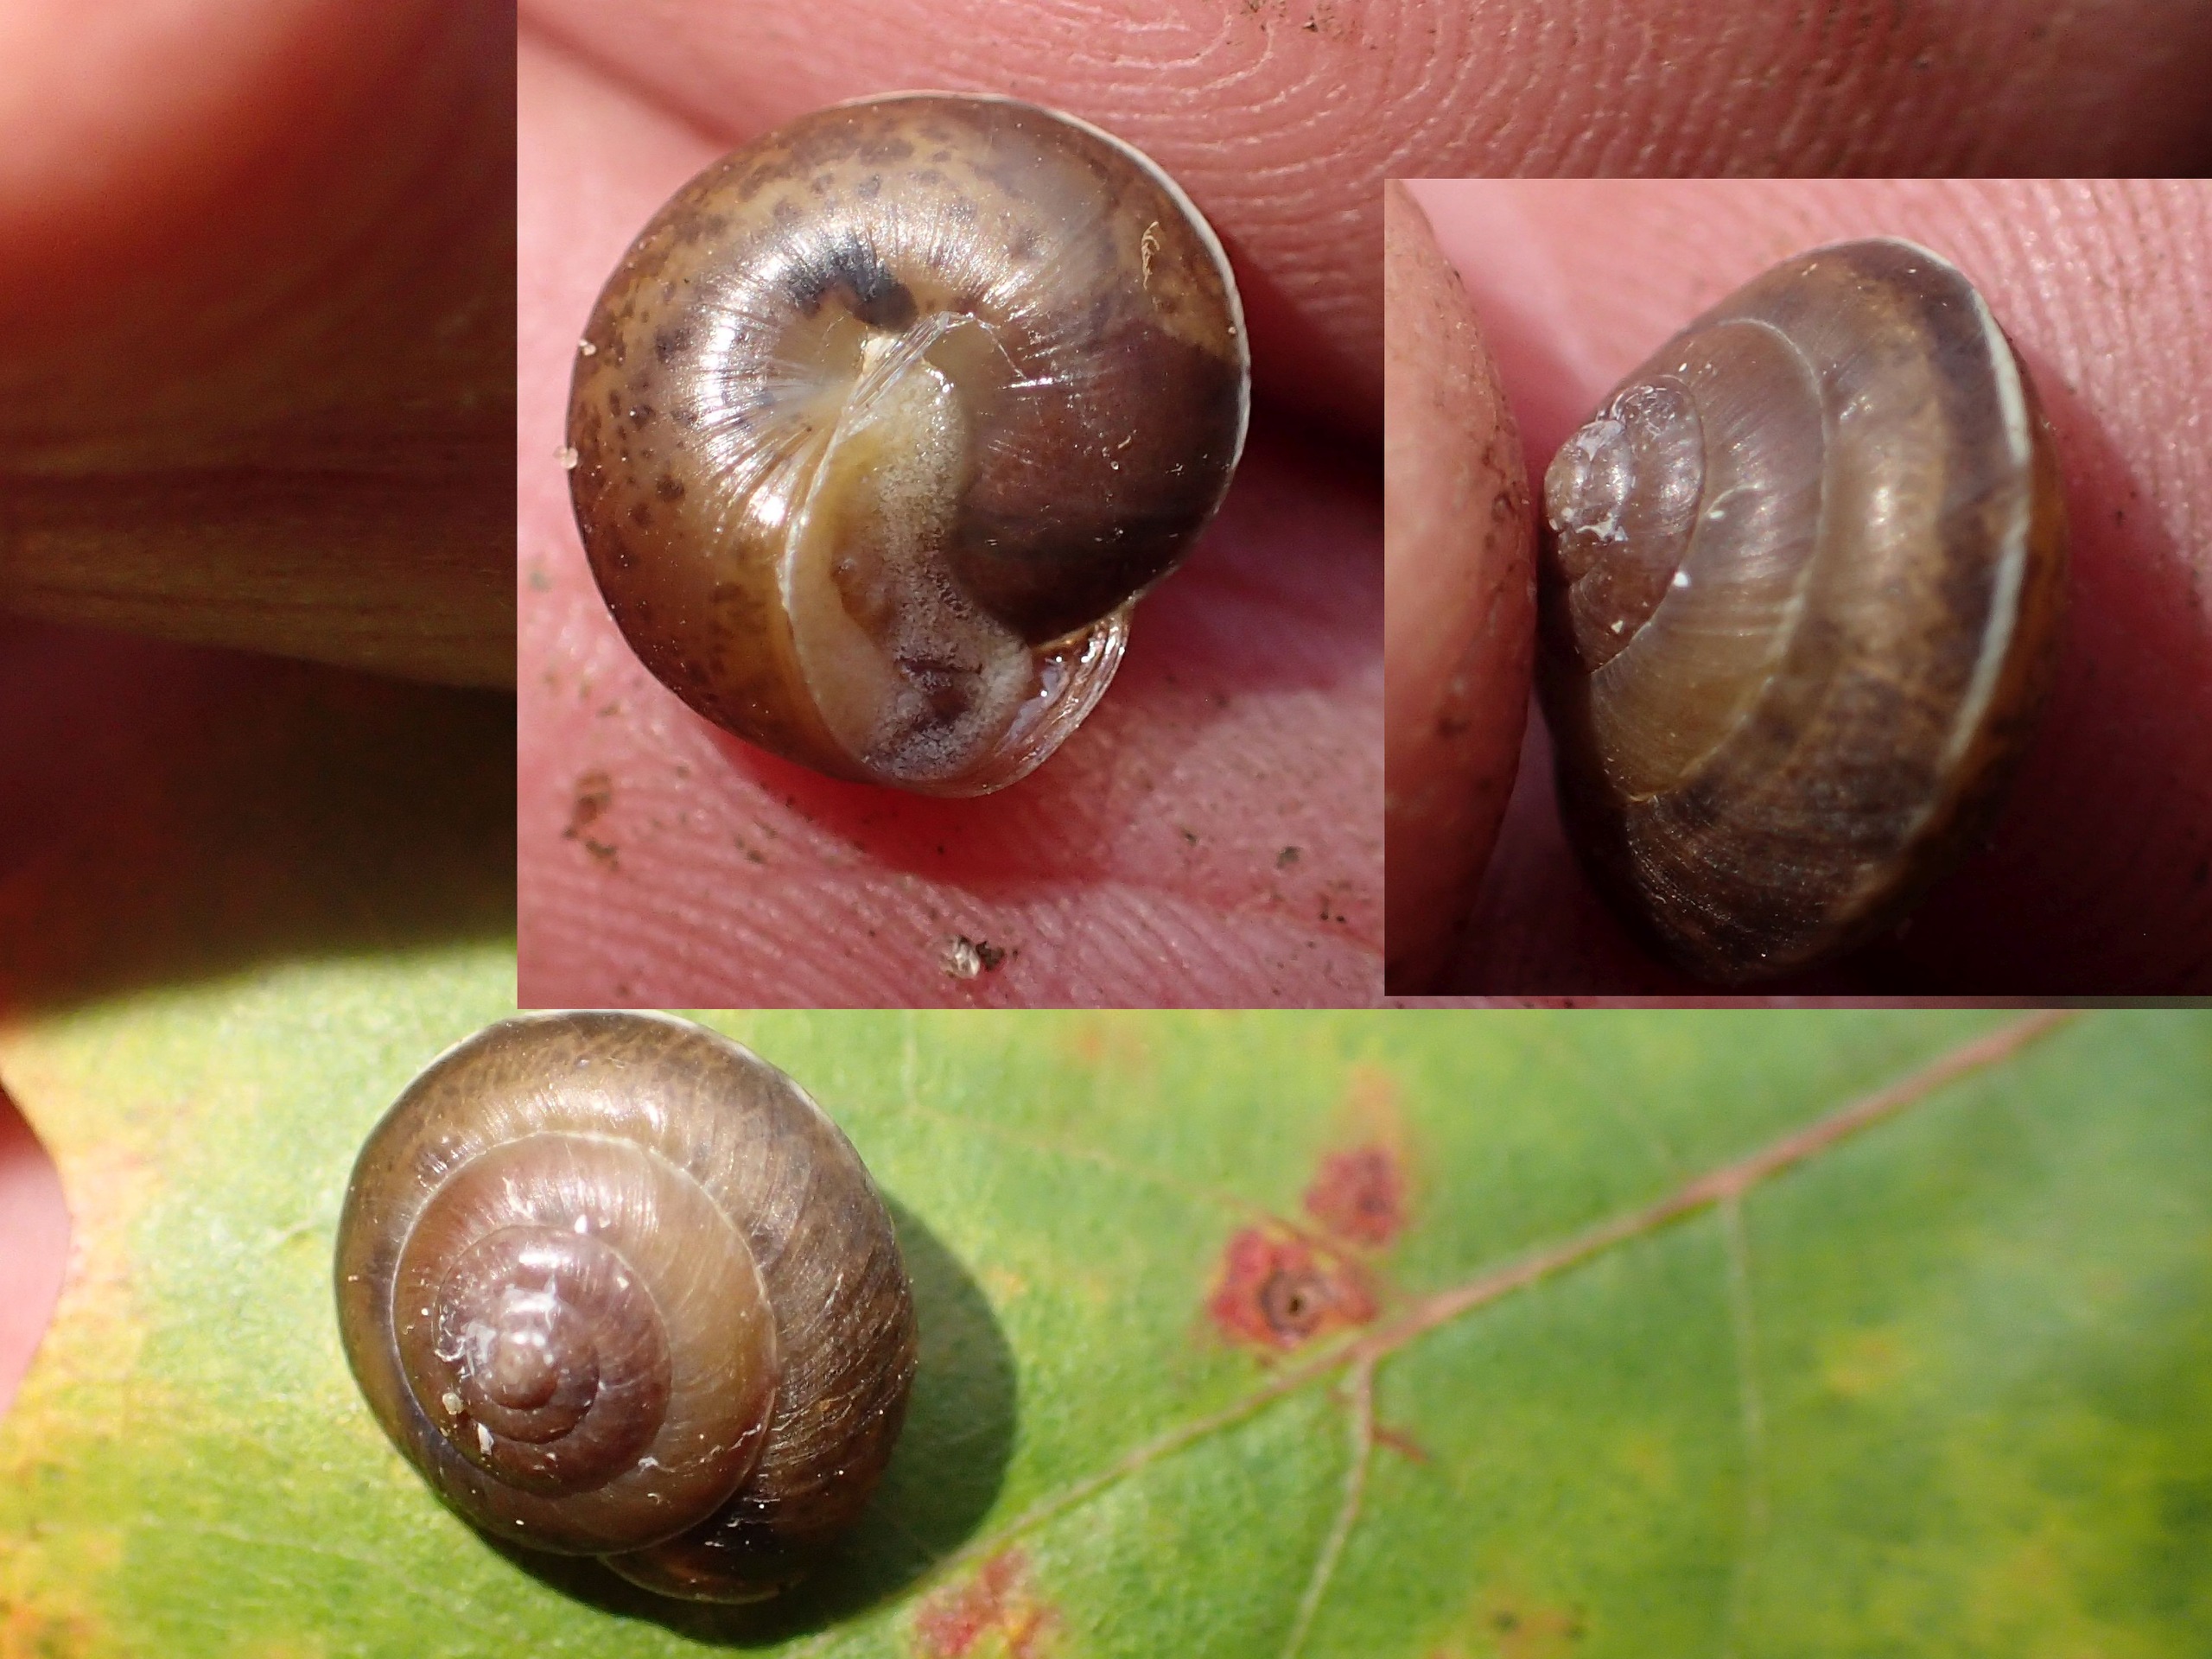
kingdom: Animalia
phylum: Mollusca
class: Gastropoda
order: Stylommatophora
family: Hygromiidae
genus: Hygromia
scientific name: Hygromia cinctella
